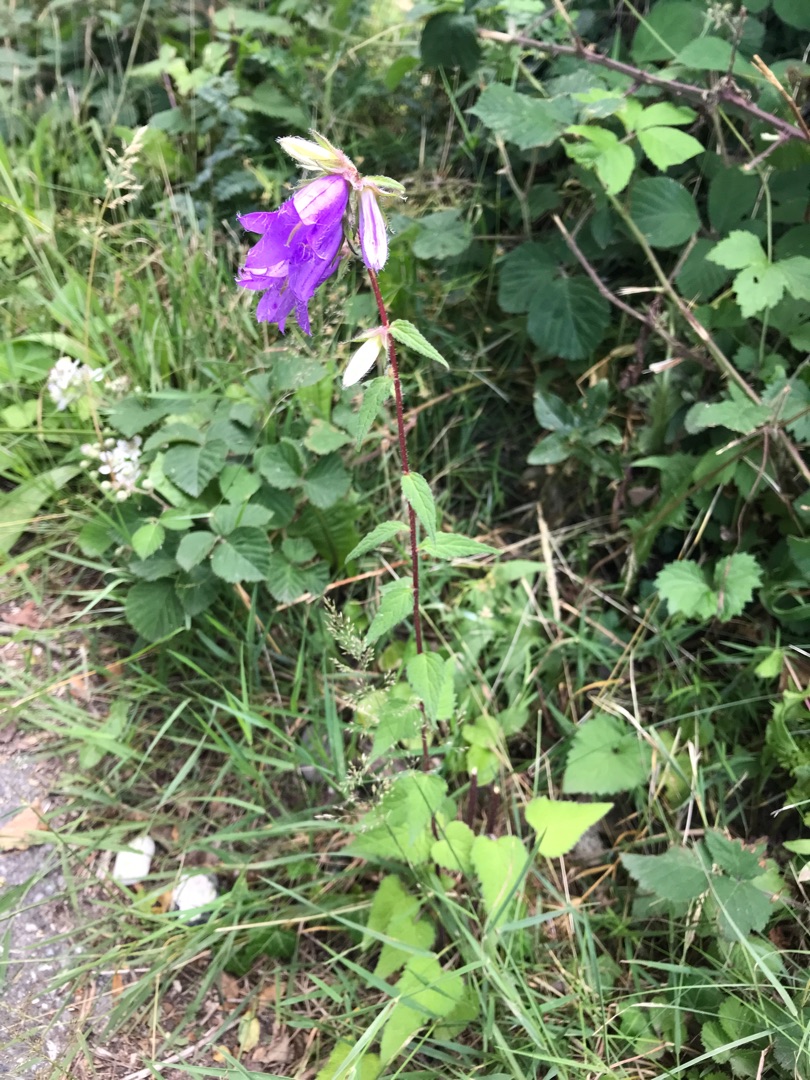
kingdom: Plantae
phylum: Tracheophyta
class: Magnoliopsida
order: Asterales
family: Campanulaceae
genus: Campanula
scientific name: Campanula trachelium
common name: Nælde-klokke
